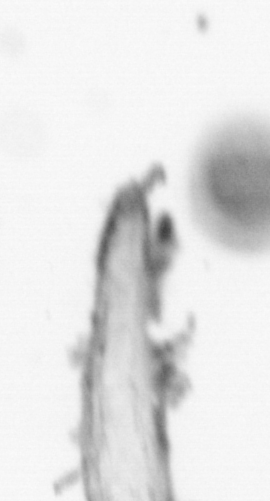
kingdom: Animalia
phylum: Annelida
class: Polychaeta
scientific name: Polychaeta
